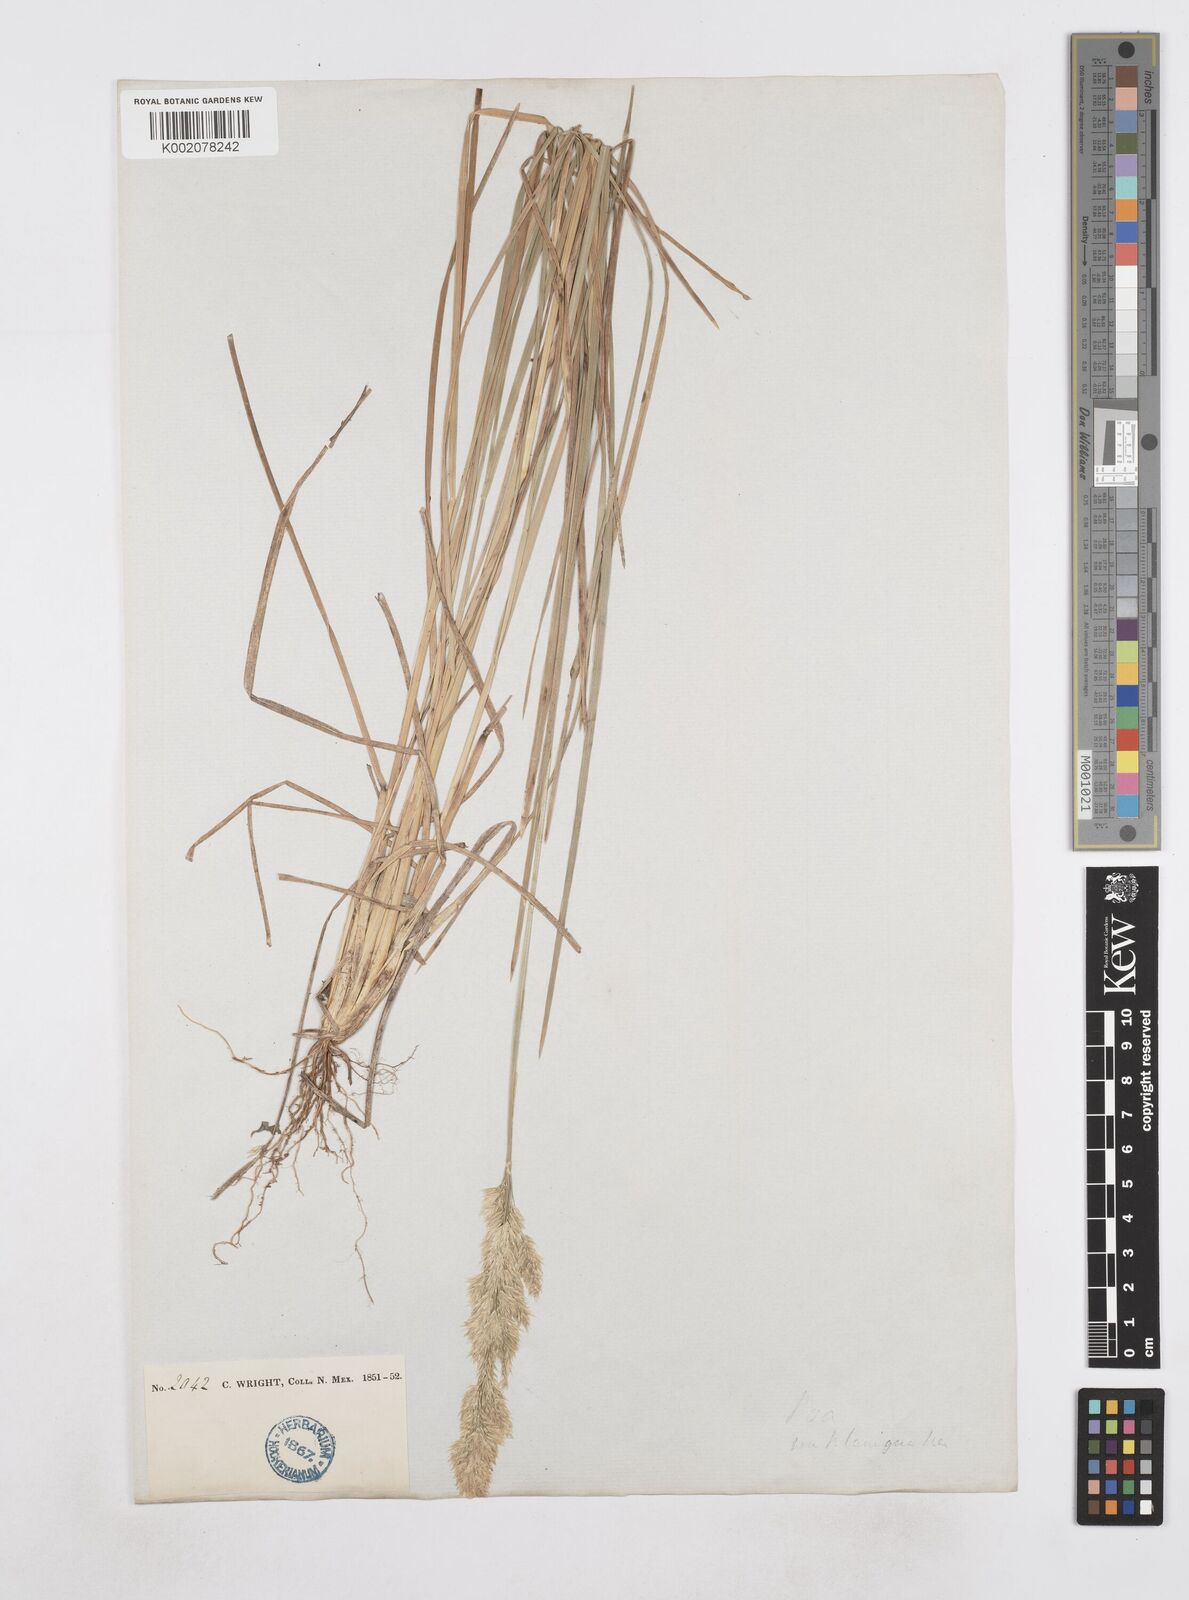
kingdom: Plantae
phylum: Tracheophyta
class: Liliopsida
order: Poales
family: Poaceae
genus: Poa
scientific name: Poa
